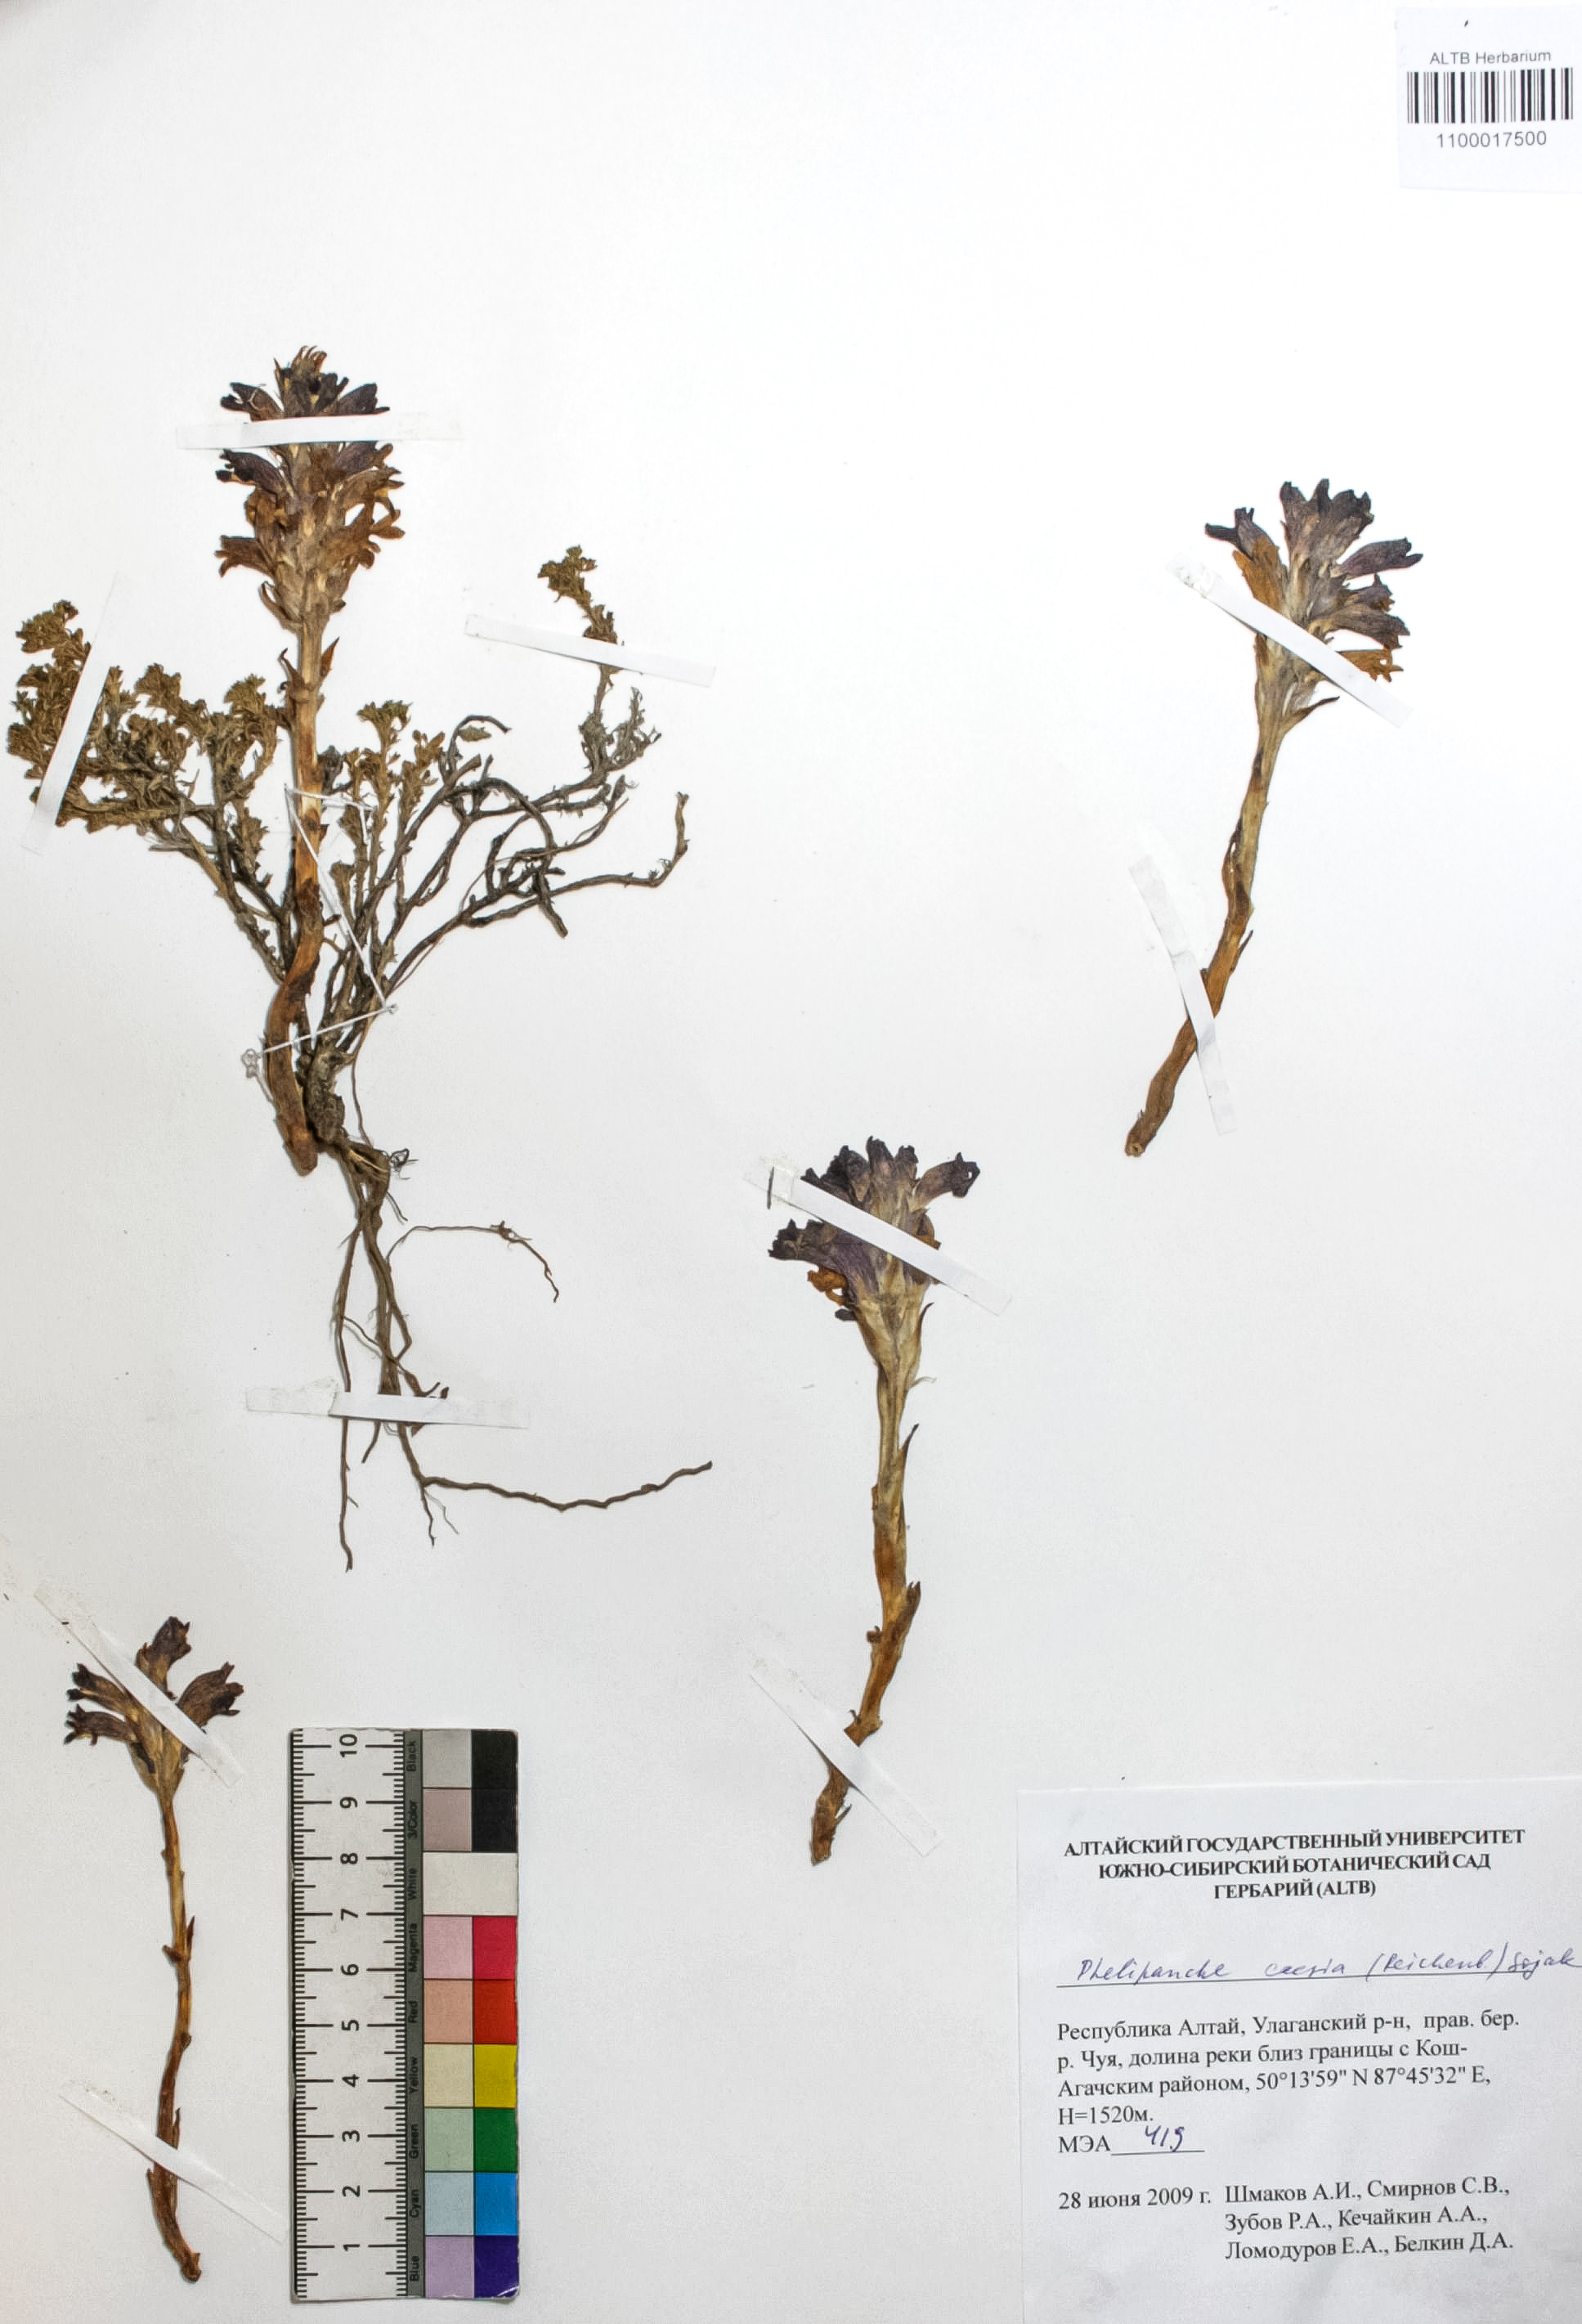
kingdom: Plantae
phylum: Tracheophyta
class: Magnoliopsida
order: Lamiales
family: Orobanchaceae
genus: Phelipanche
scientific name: Phelipanche caesia
